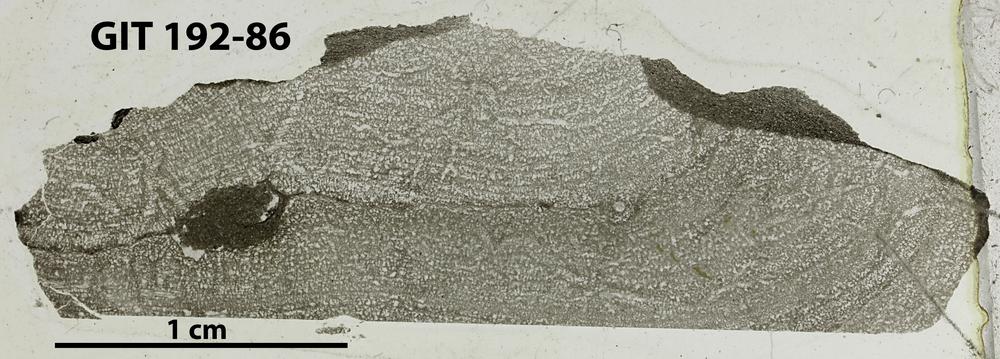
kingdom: Animalia
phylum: Porifera
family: Pseudolabechiidae
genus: Vikingia
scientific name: Vikingia
